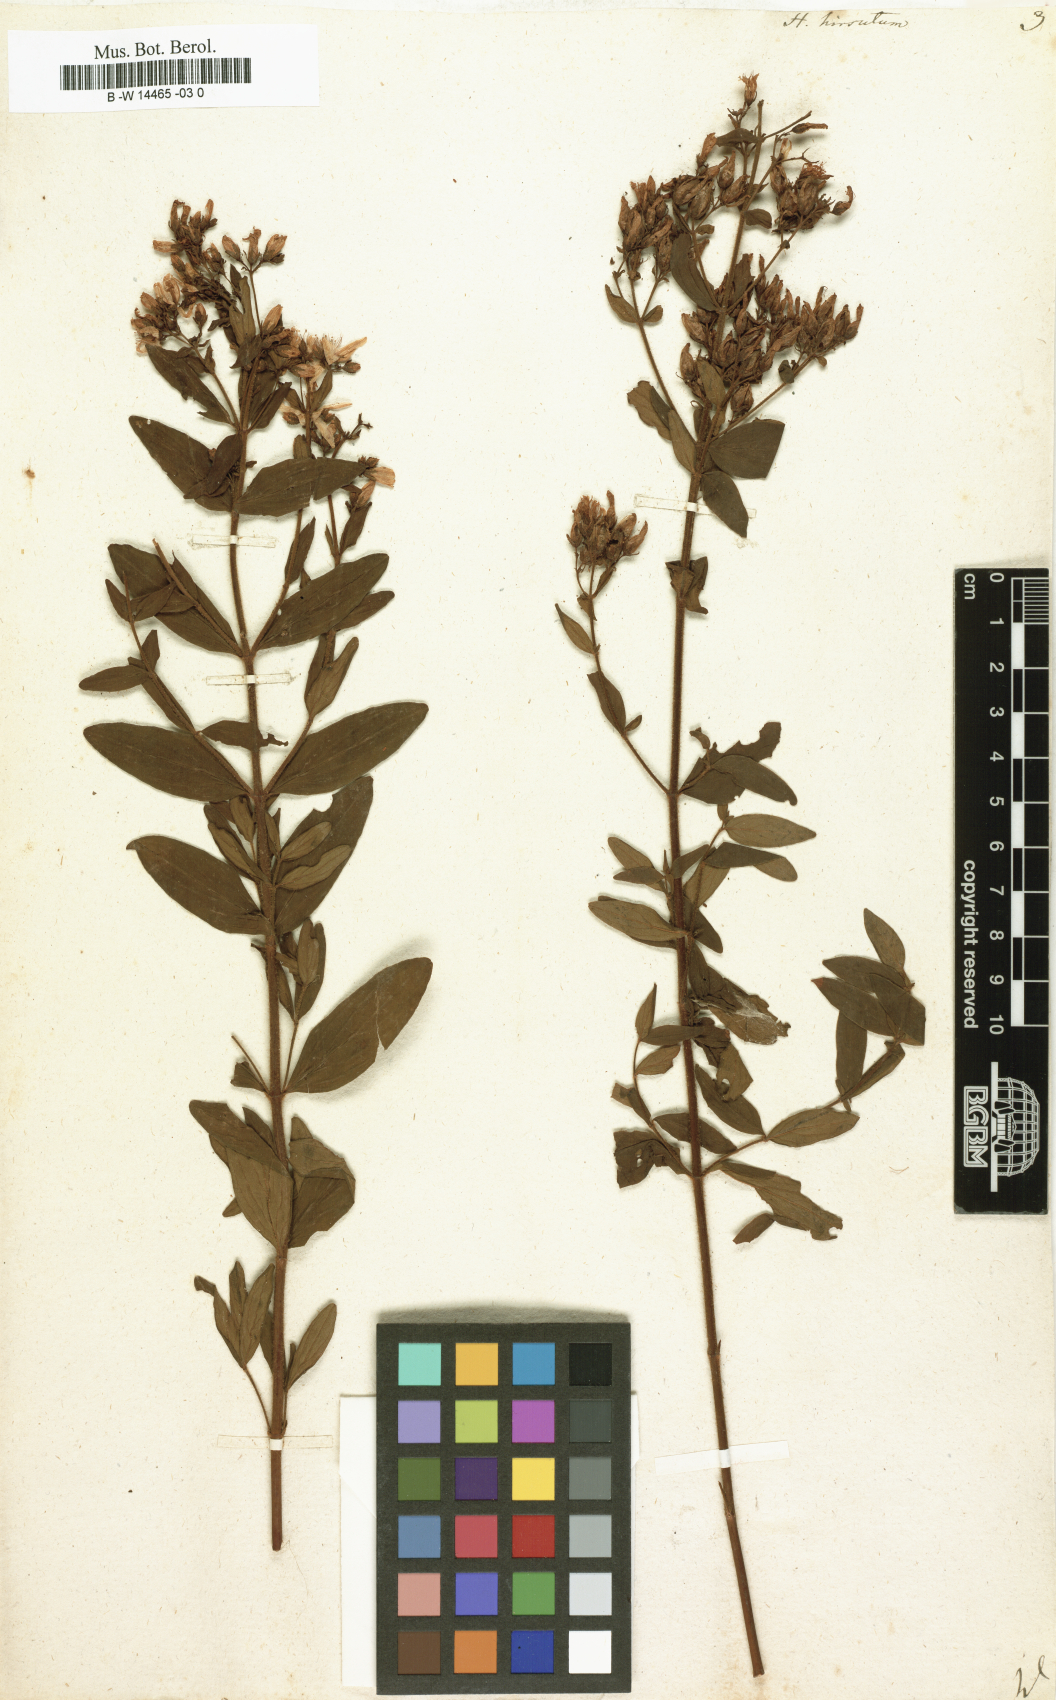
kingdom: Plantae
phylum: Tracheophyta
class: Magnoliopsida
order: Malpighiales
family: Hypericaceae
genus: Hypericum
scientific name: Hypericum hirsutum
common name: Hairy st. john's-wort
